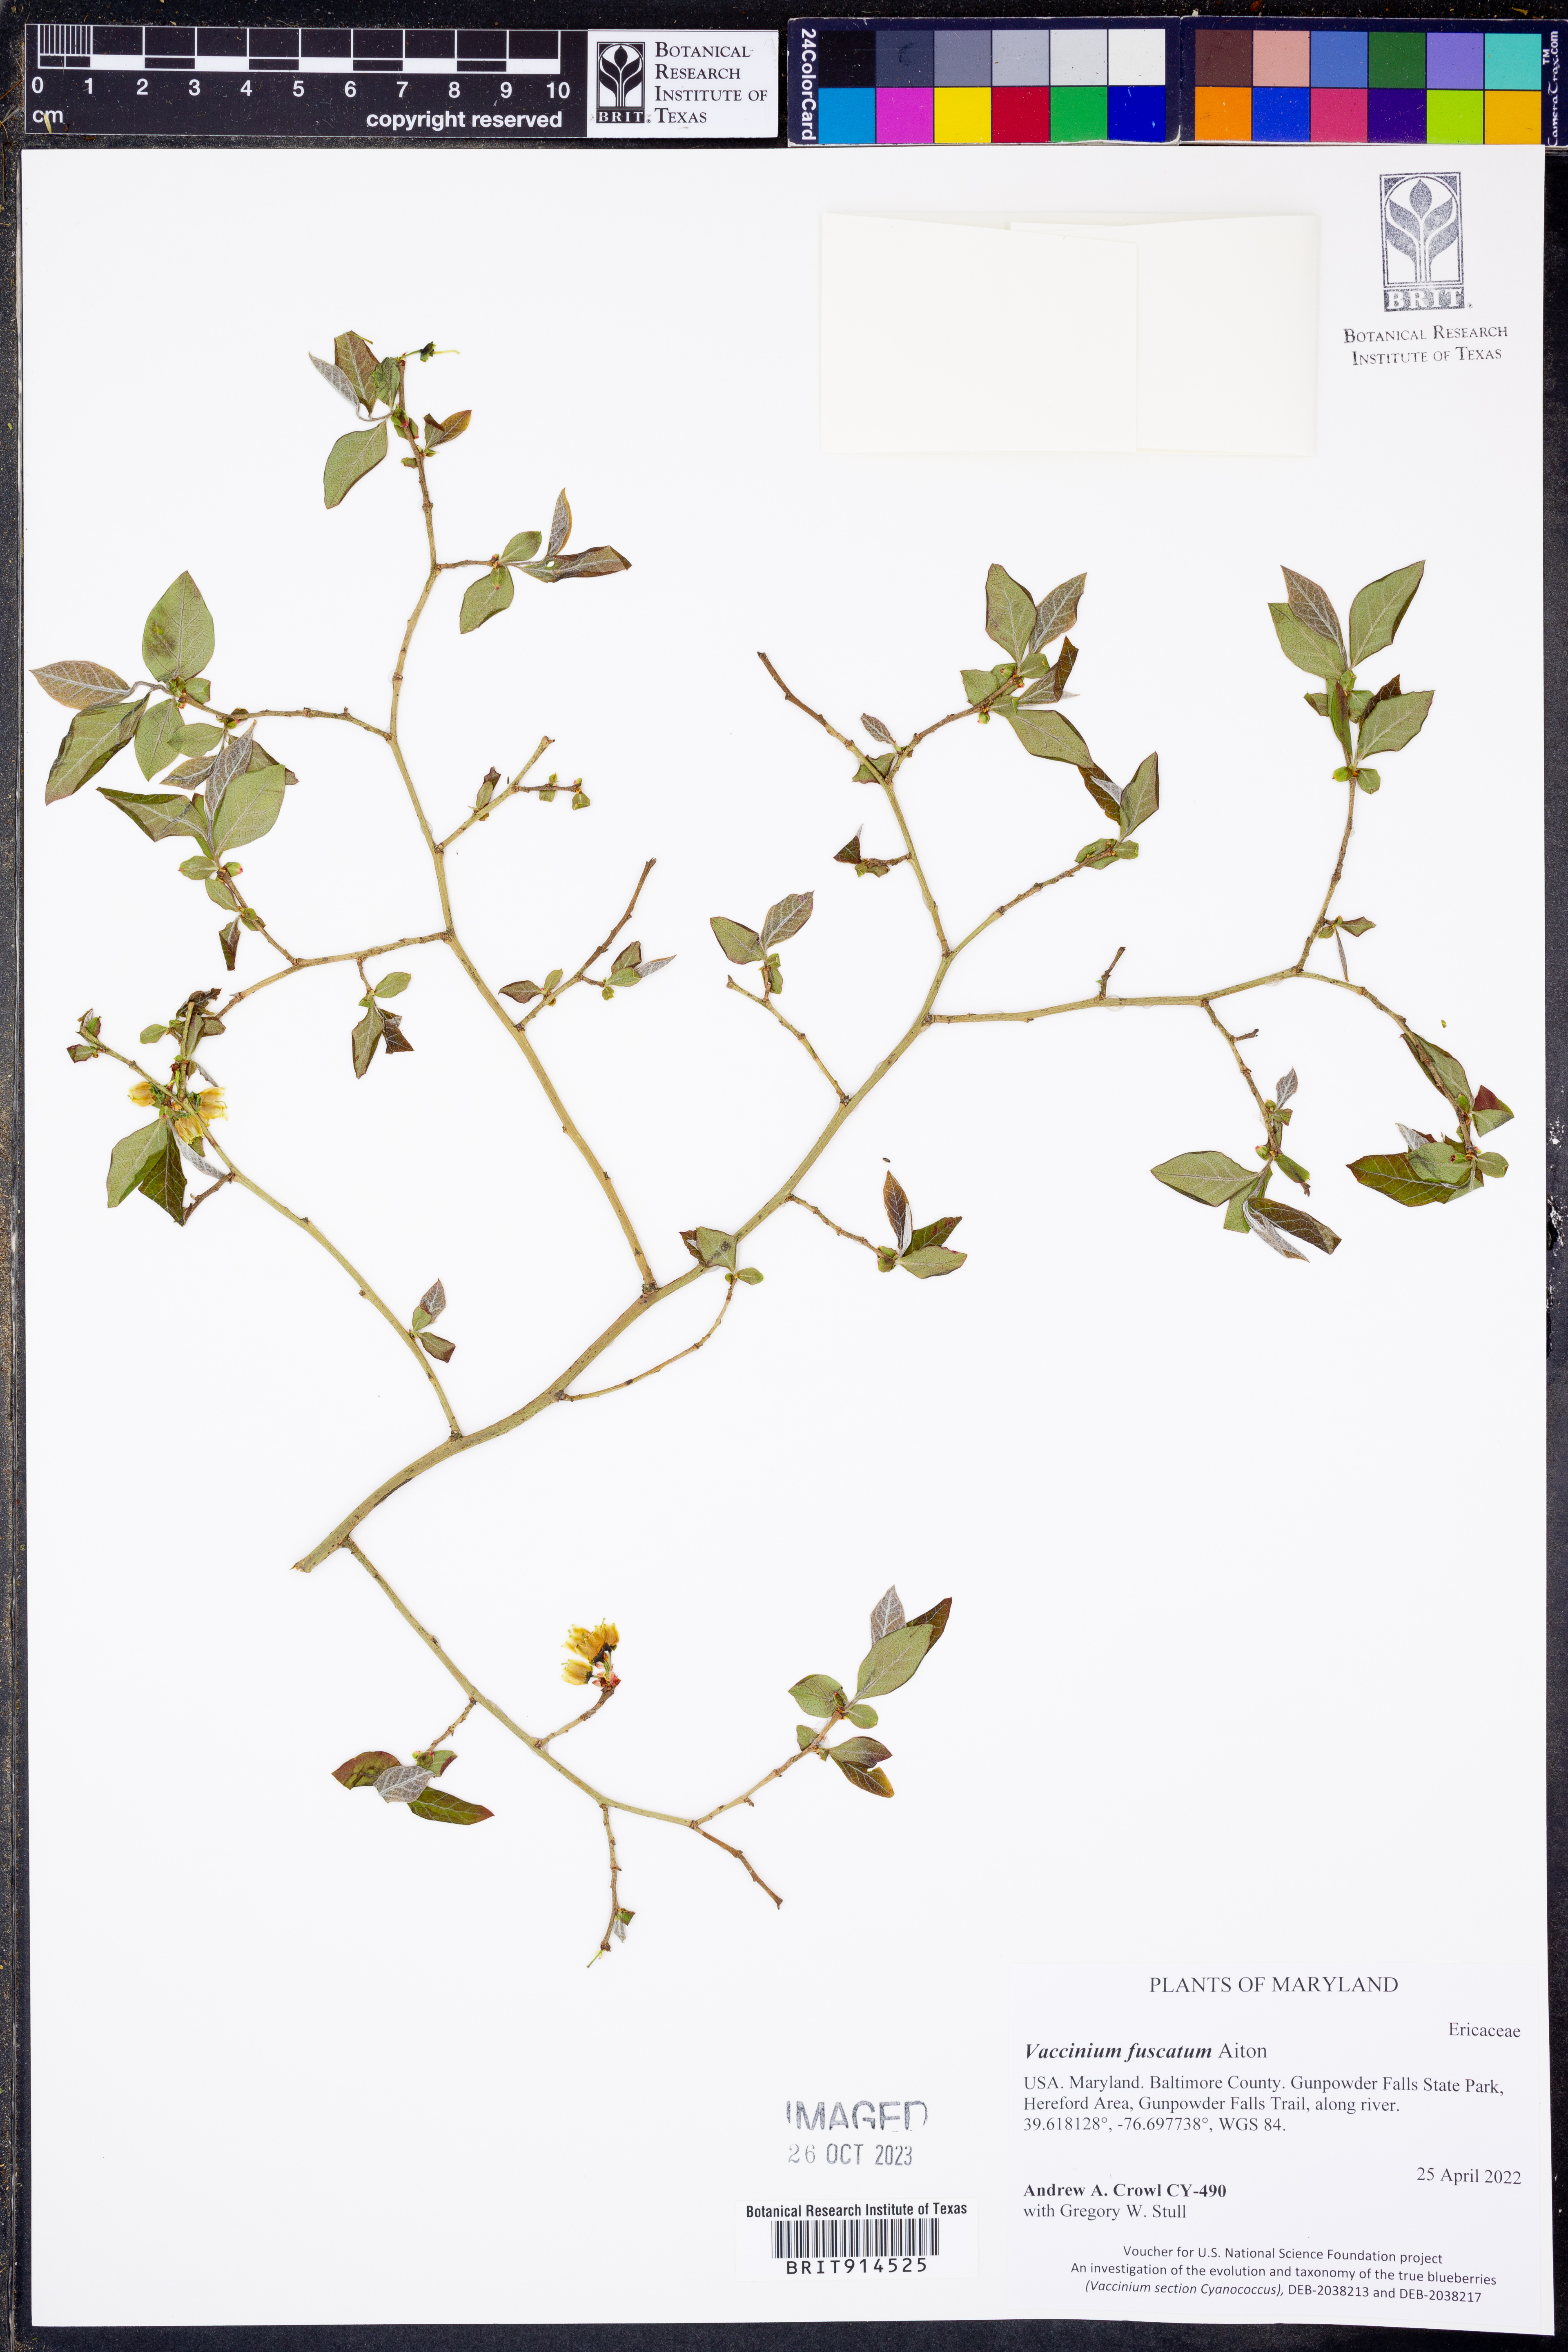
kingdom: Plantae
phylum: Tracheophyta
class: Magnoliopsida
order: Ericales
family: Ericaceae
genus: Vaccinium
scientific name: Vaccinium corymbosum
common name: Blueberry
